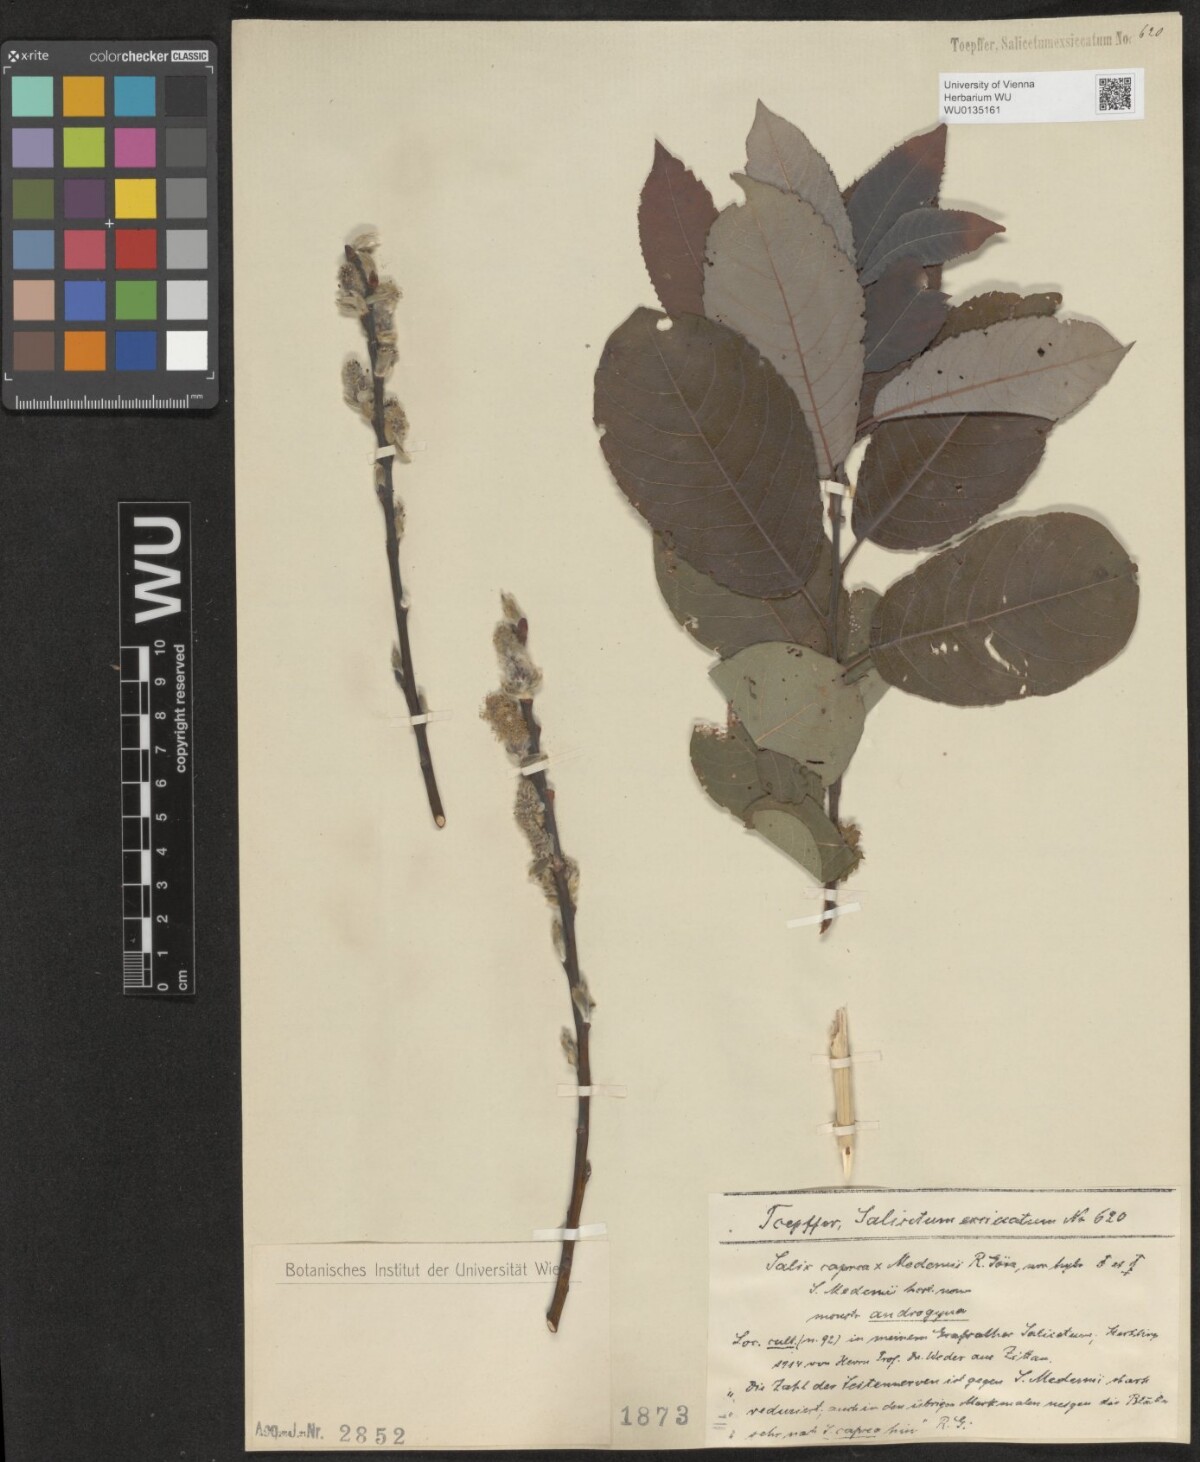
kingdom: Plantae
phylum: Tracheophyta
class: Magnoliopsida
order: Malpighiales
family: Salicaceae
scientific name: Salicaceae
